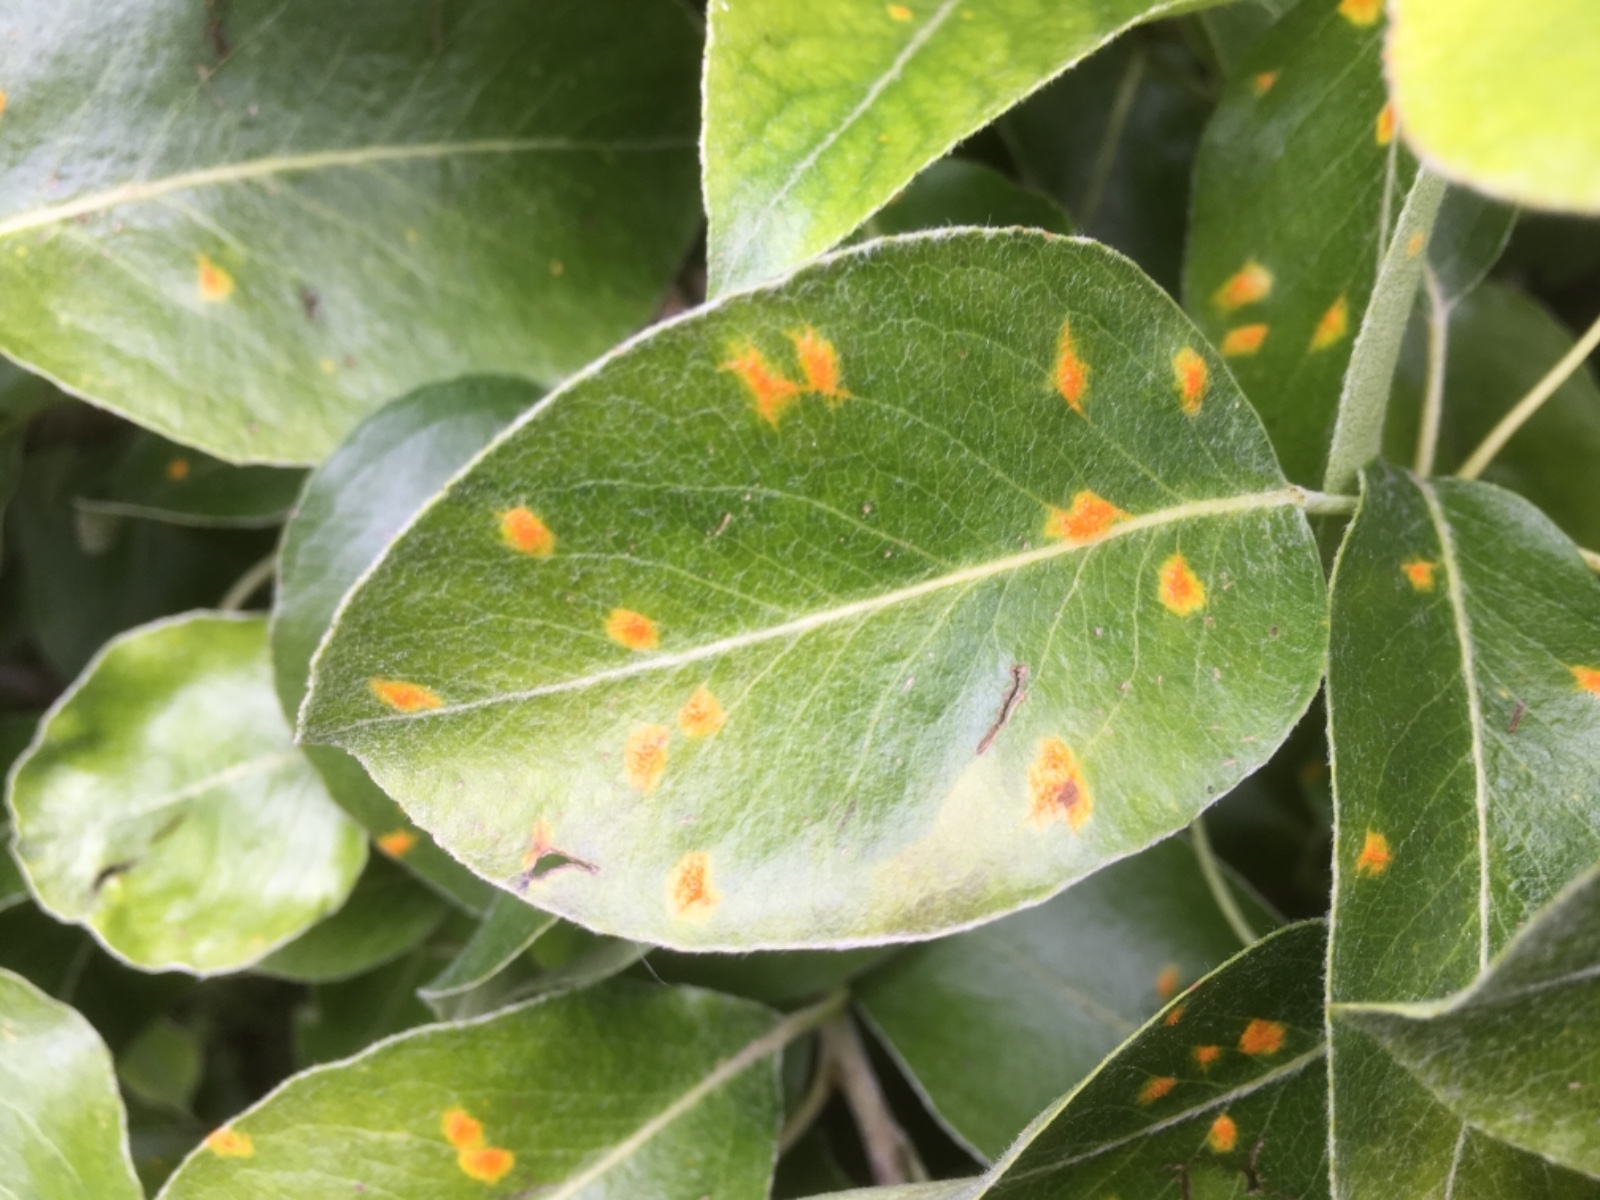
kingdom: Fungi
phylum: Basidiomycota
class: Pucciniomycetes
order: Pucciniales
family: Gymnosporangiaceae
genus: Gymnosporangium
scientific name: Gymnosporangium sabinae
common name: pæregitter-bævrerust
